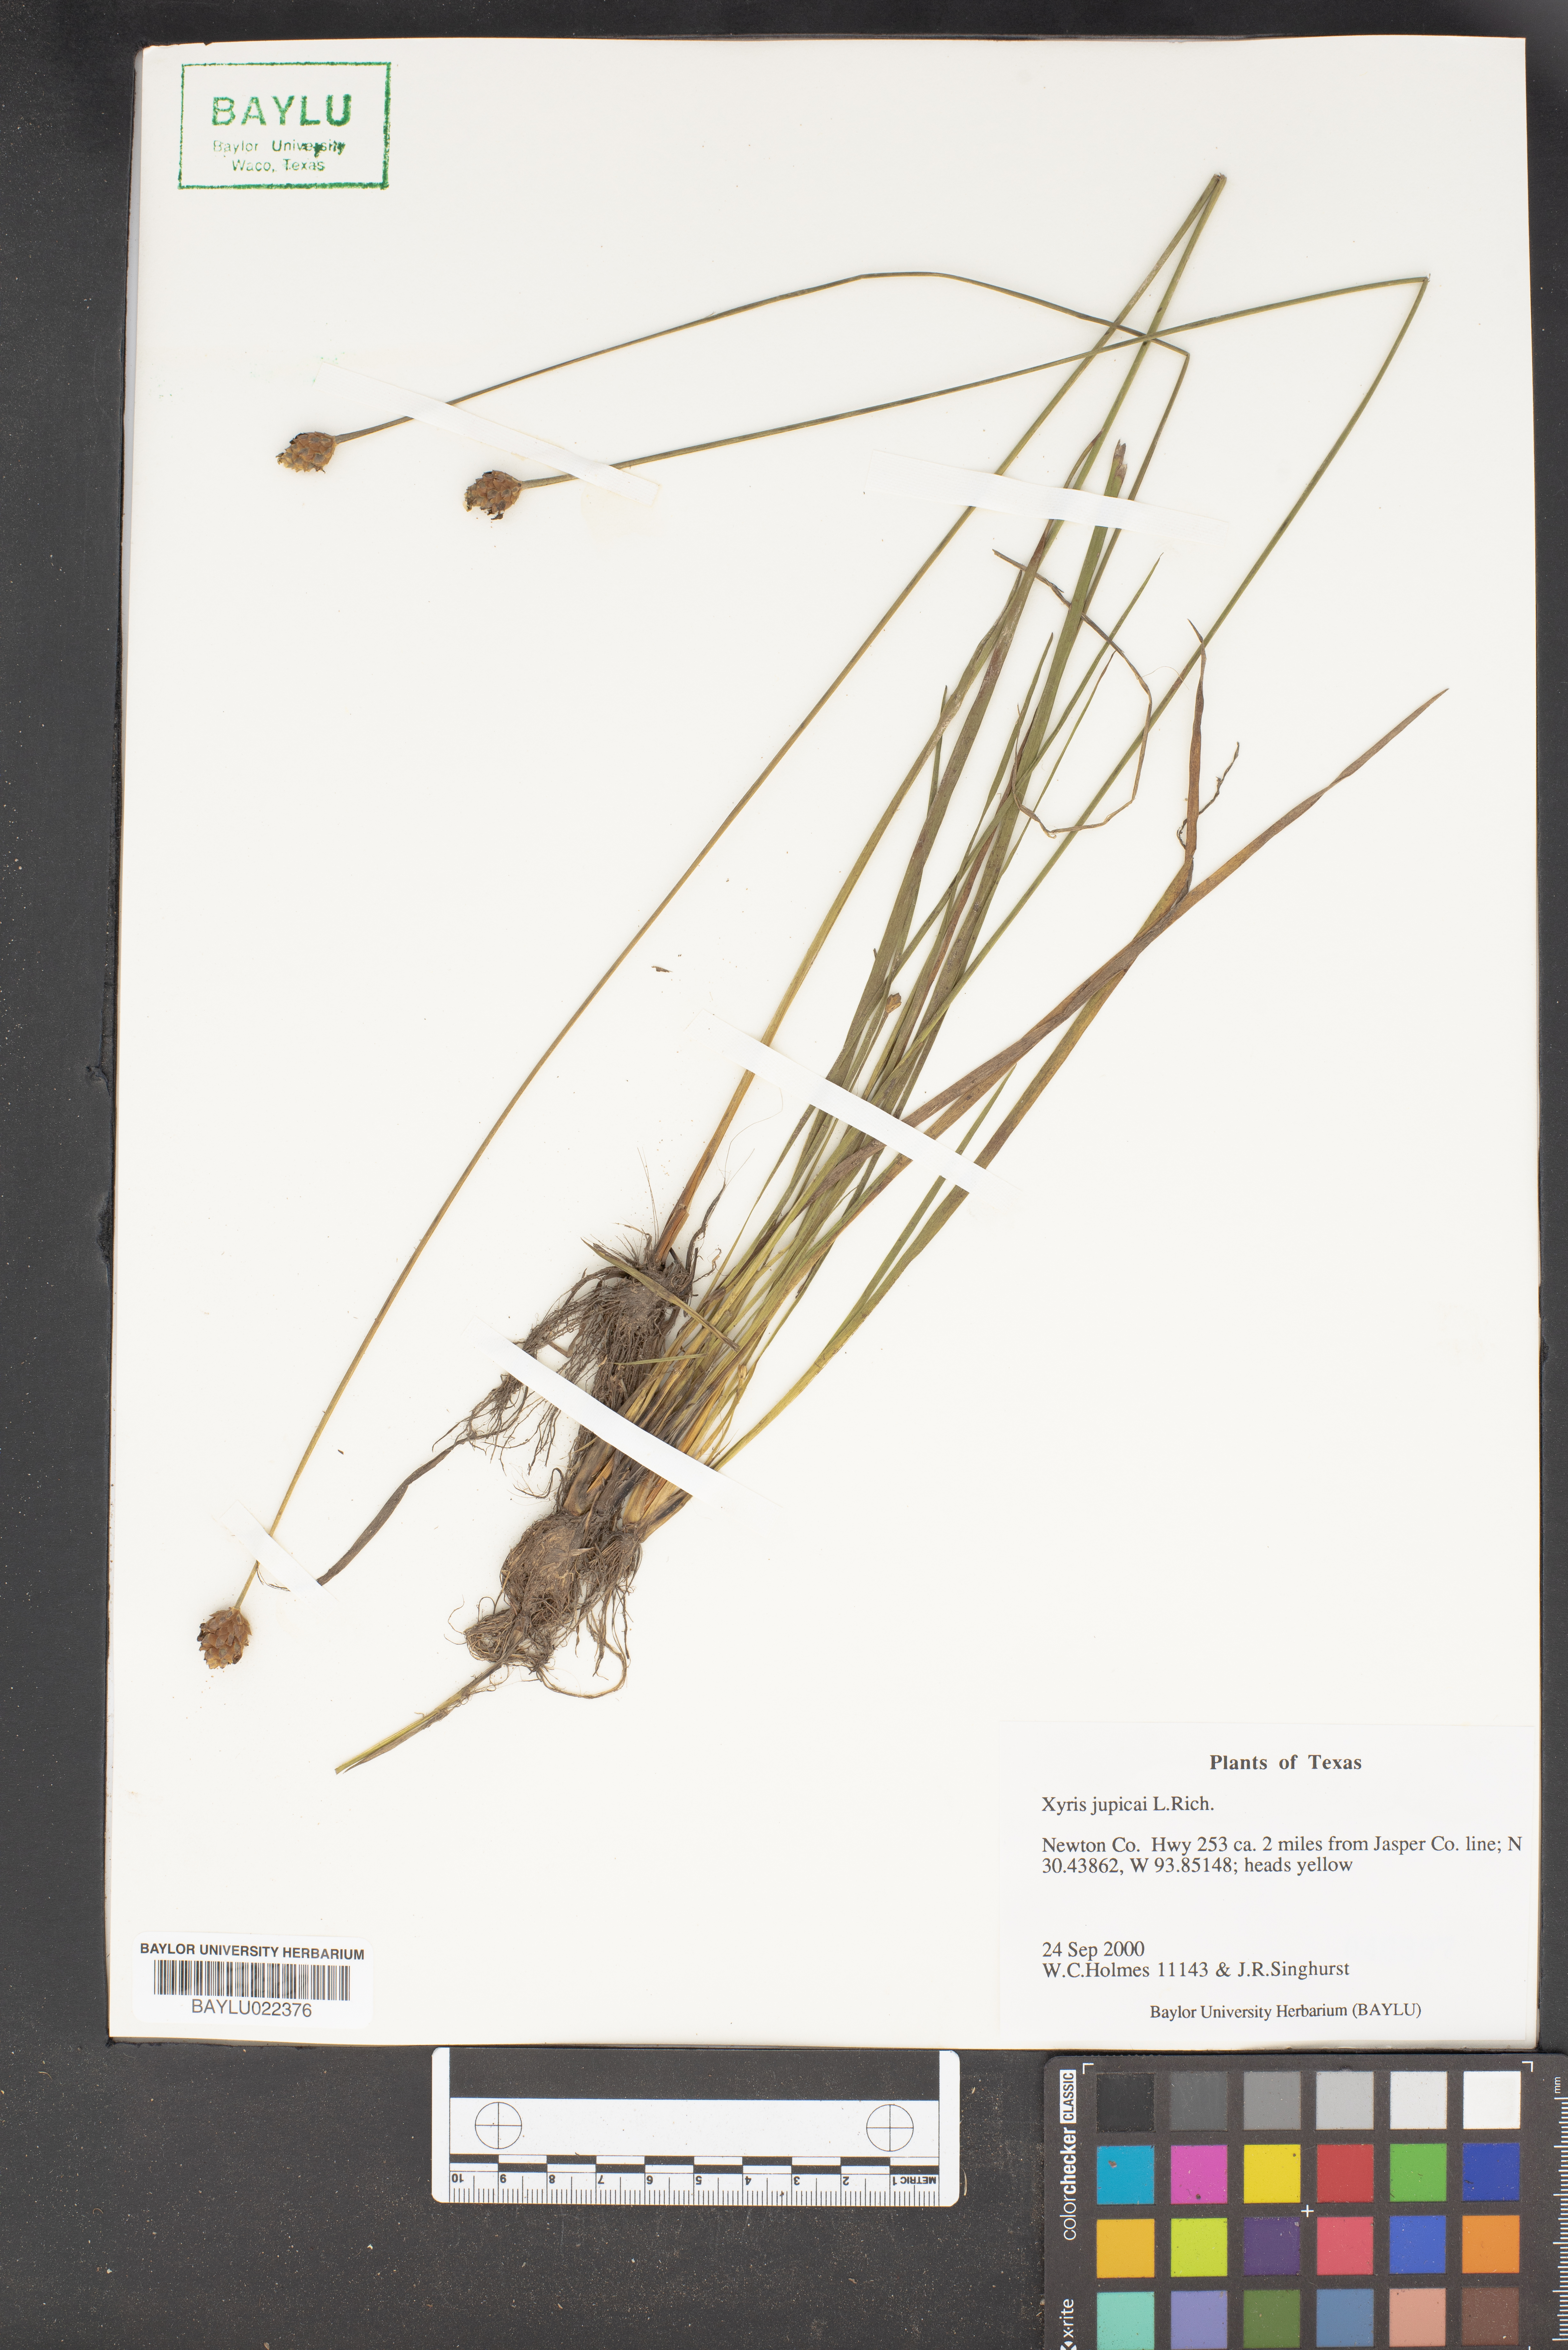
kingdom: Plantae
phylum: Tracheophyta
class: Liliopsida
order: Poales
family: Xyridaceae
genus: Xyris
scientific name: Xyris jupicai
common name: Richard's yelloweyed grass
